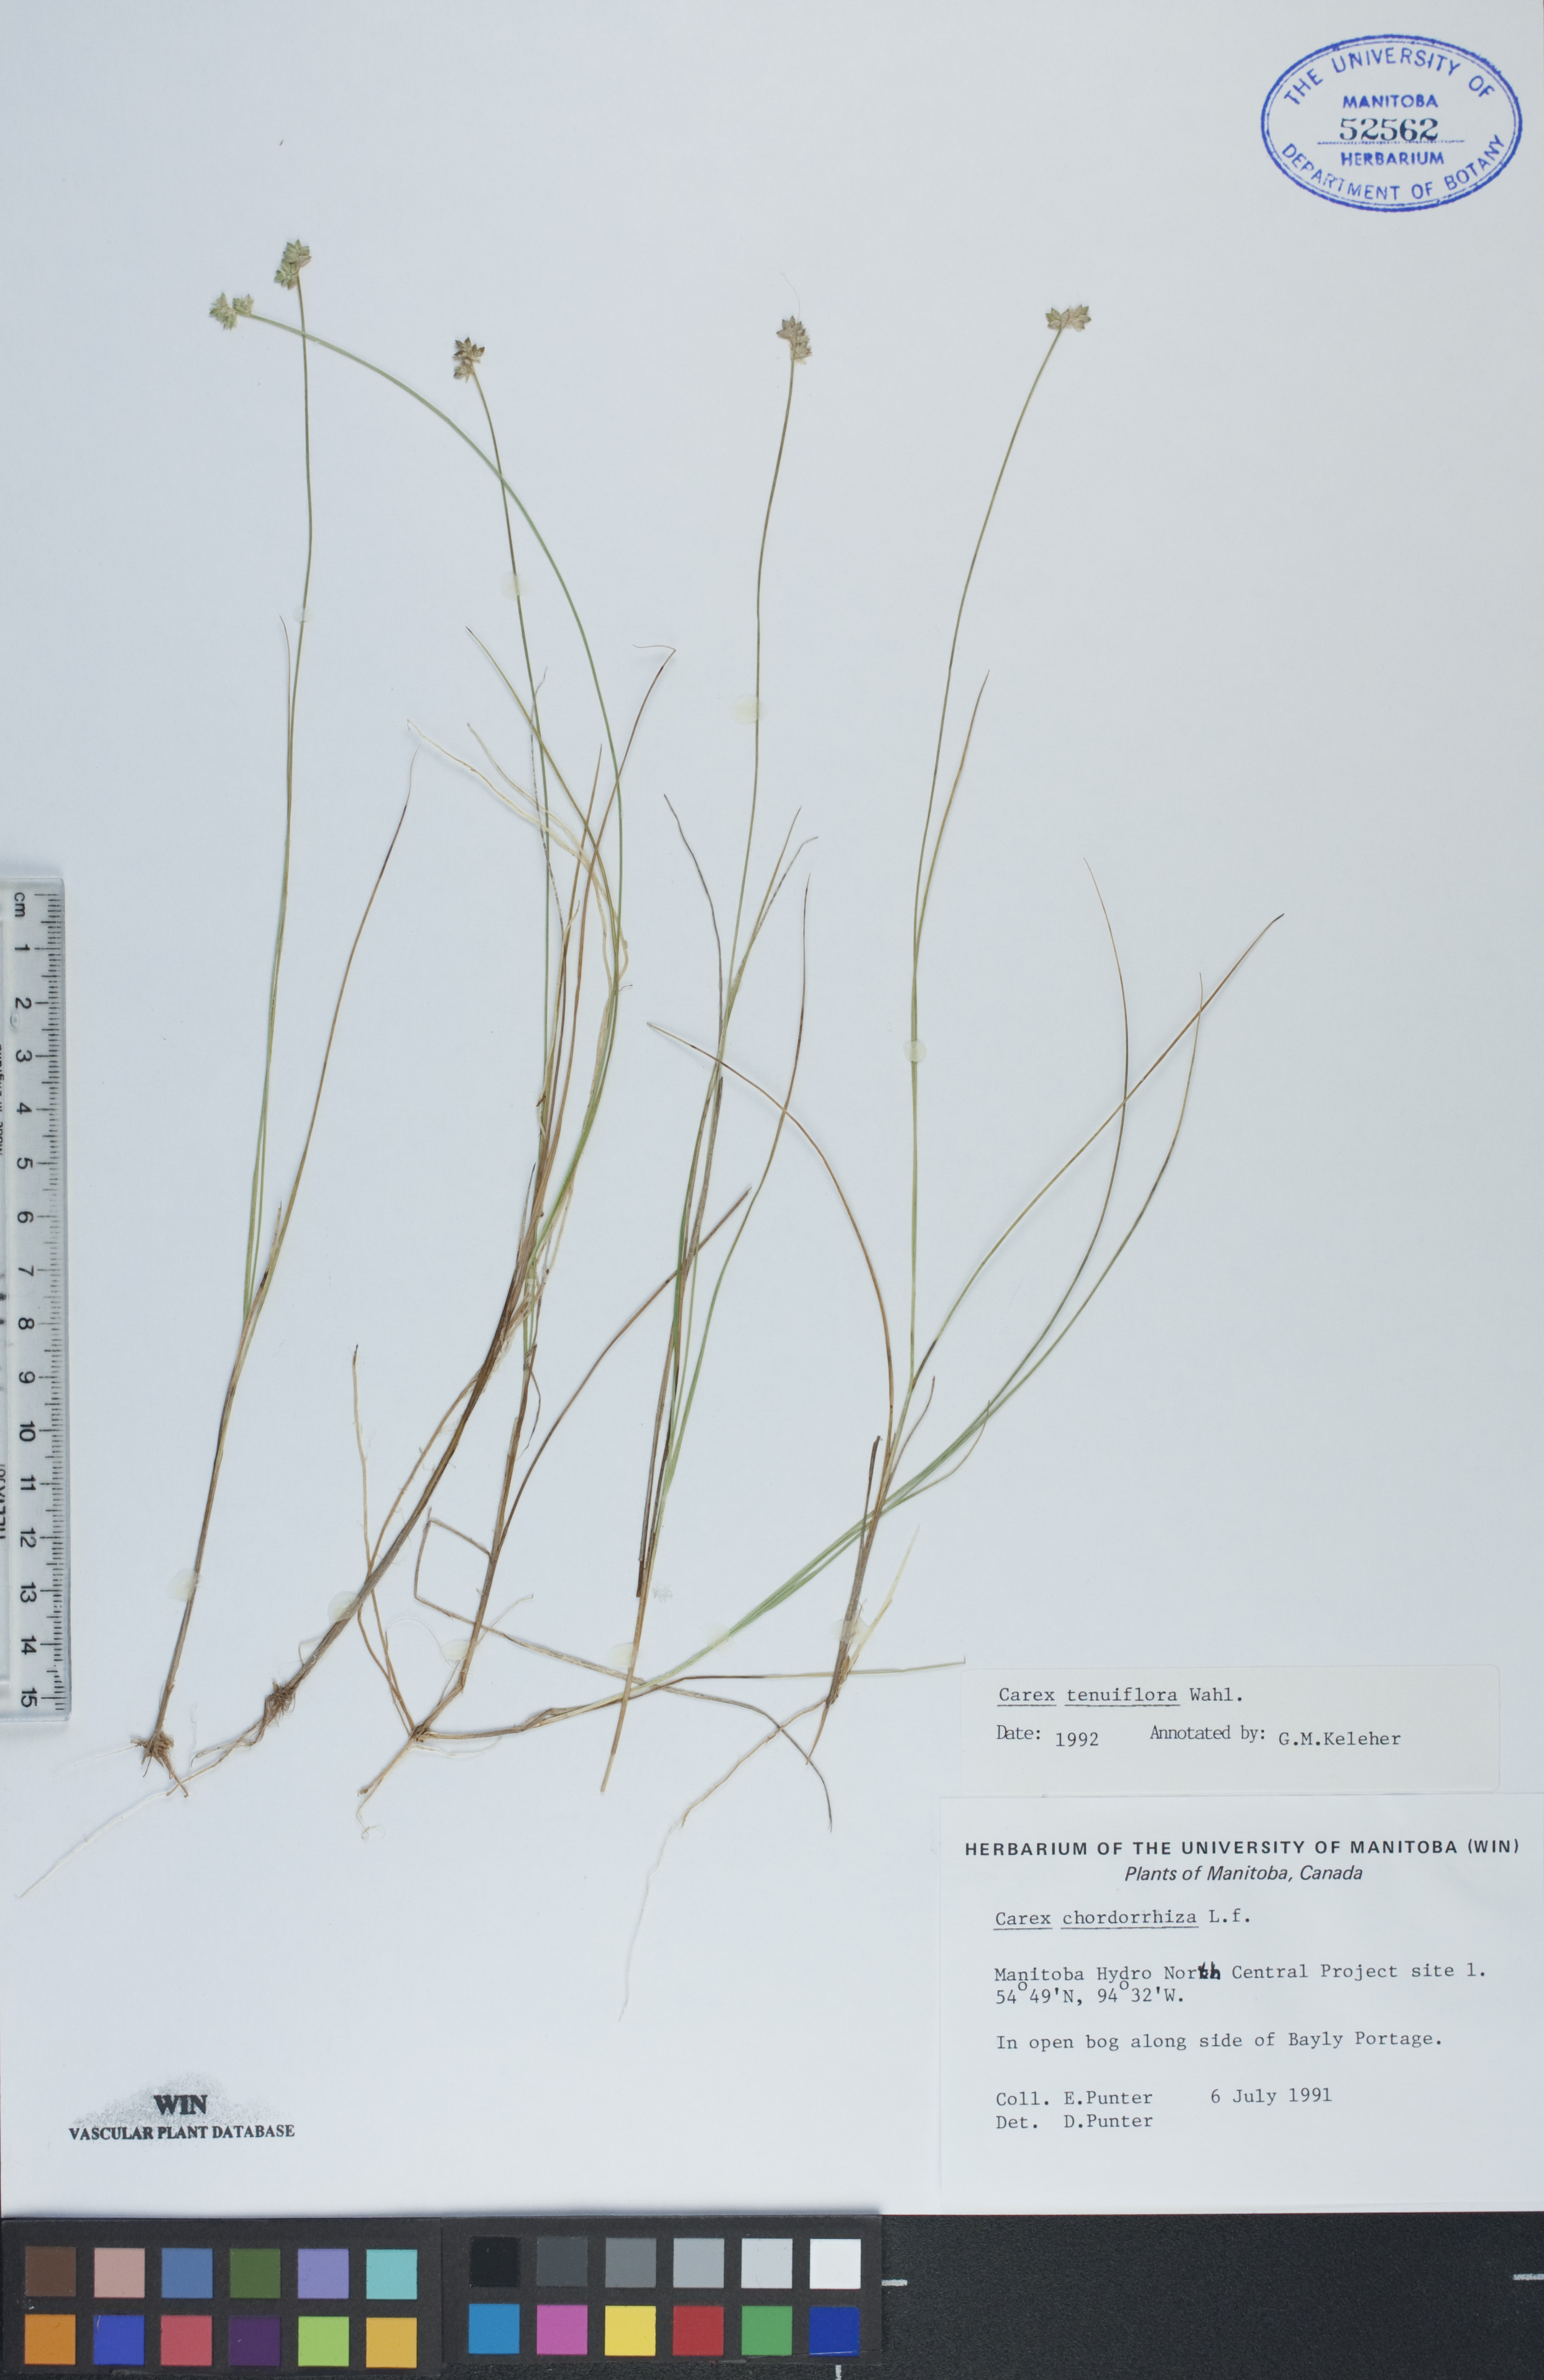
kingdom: Plantae
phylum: Tracheophyta
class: Liliopsida
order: Poales
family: Cyperaceae
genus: Carex
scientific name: Carex tenuiflora
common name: Sparse-flowered sedge
